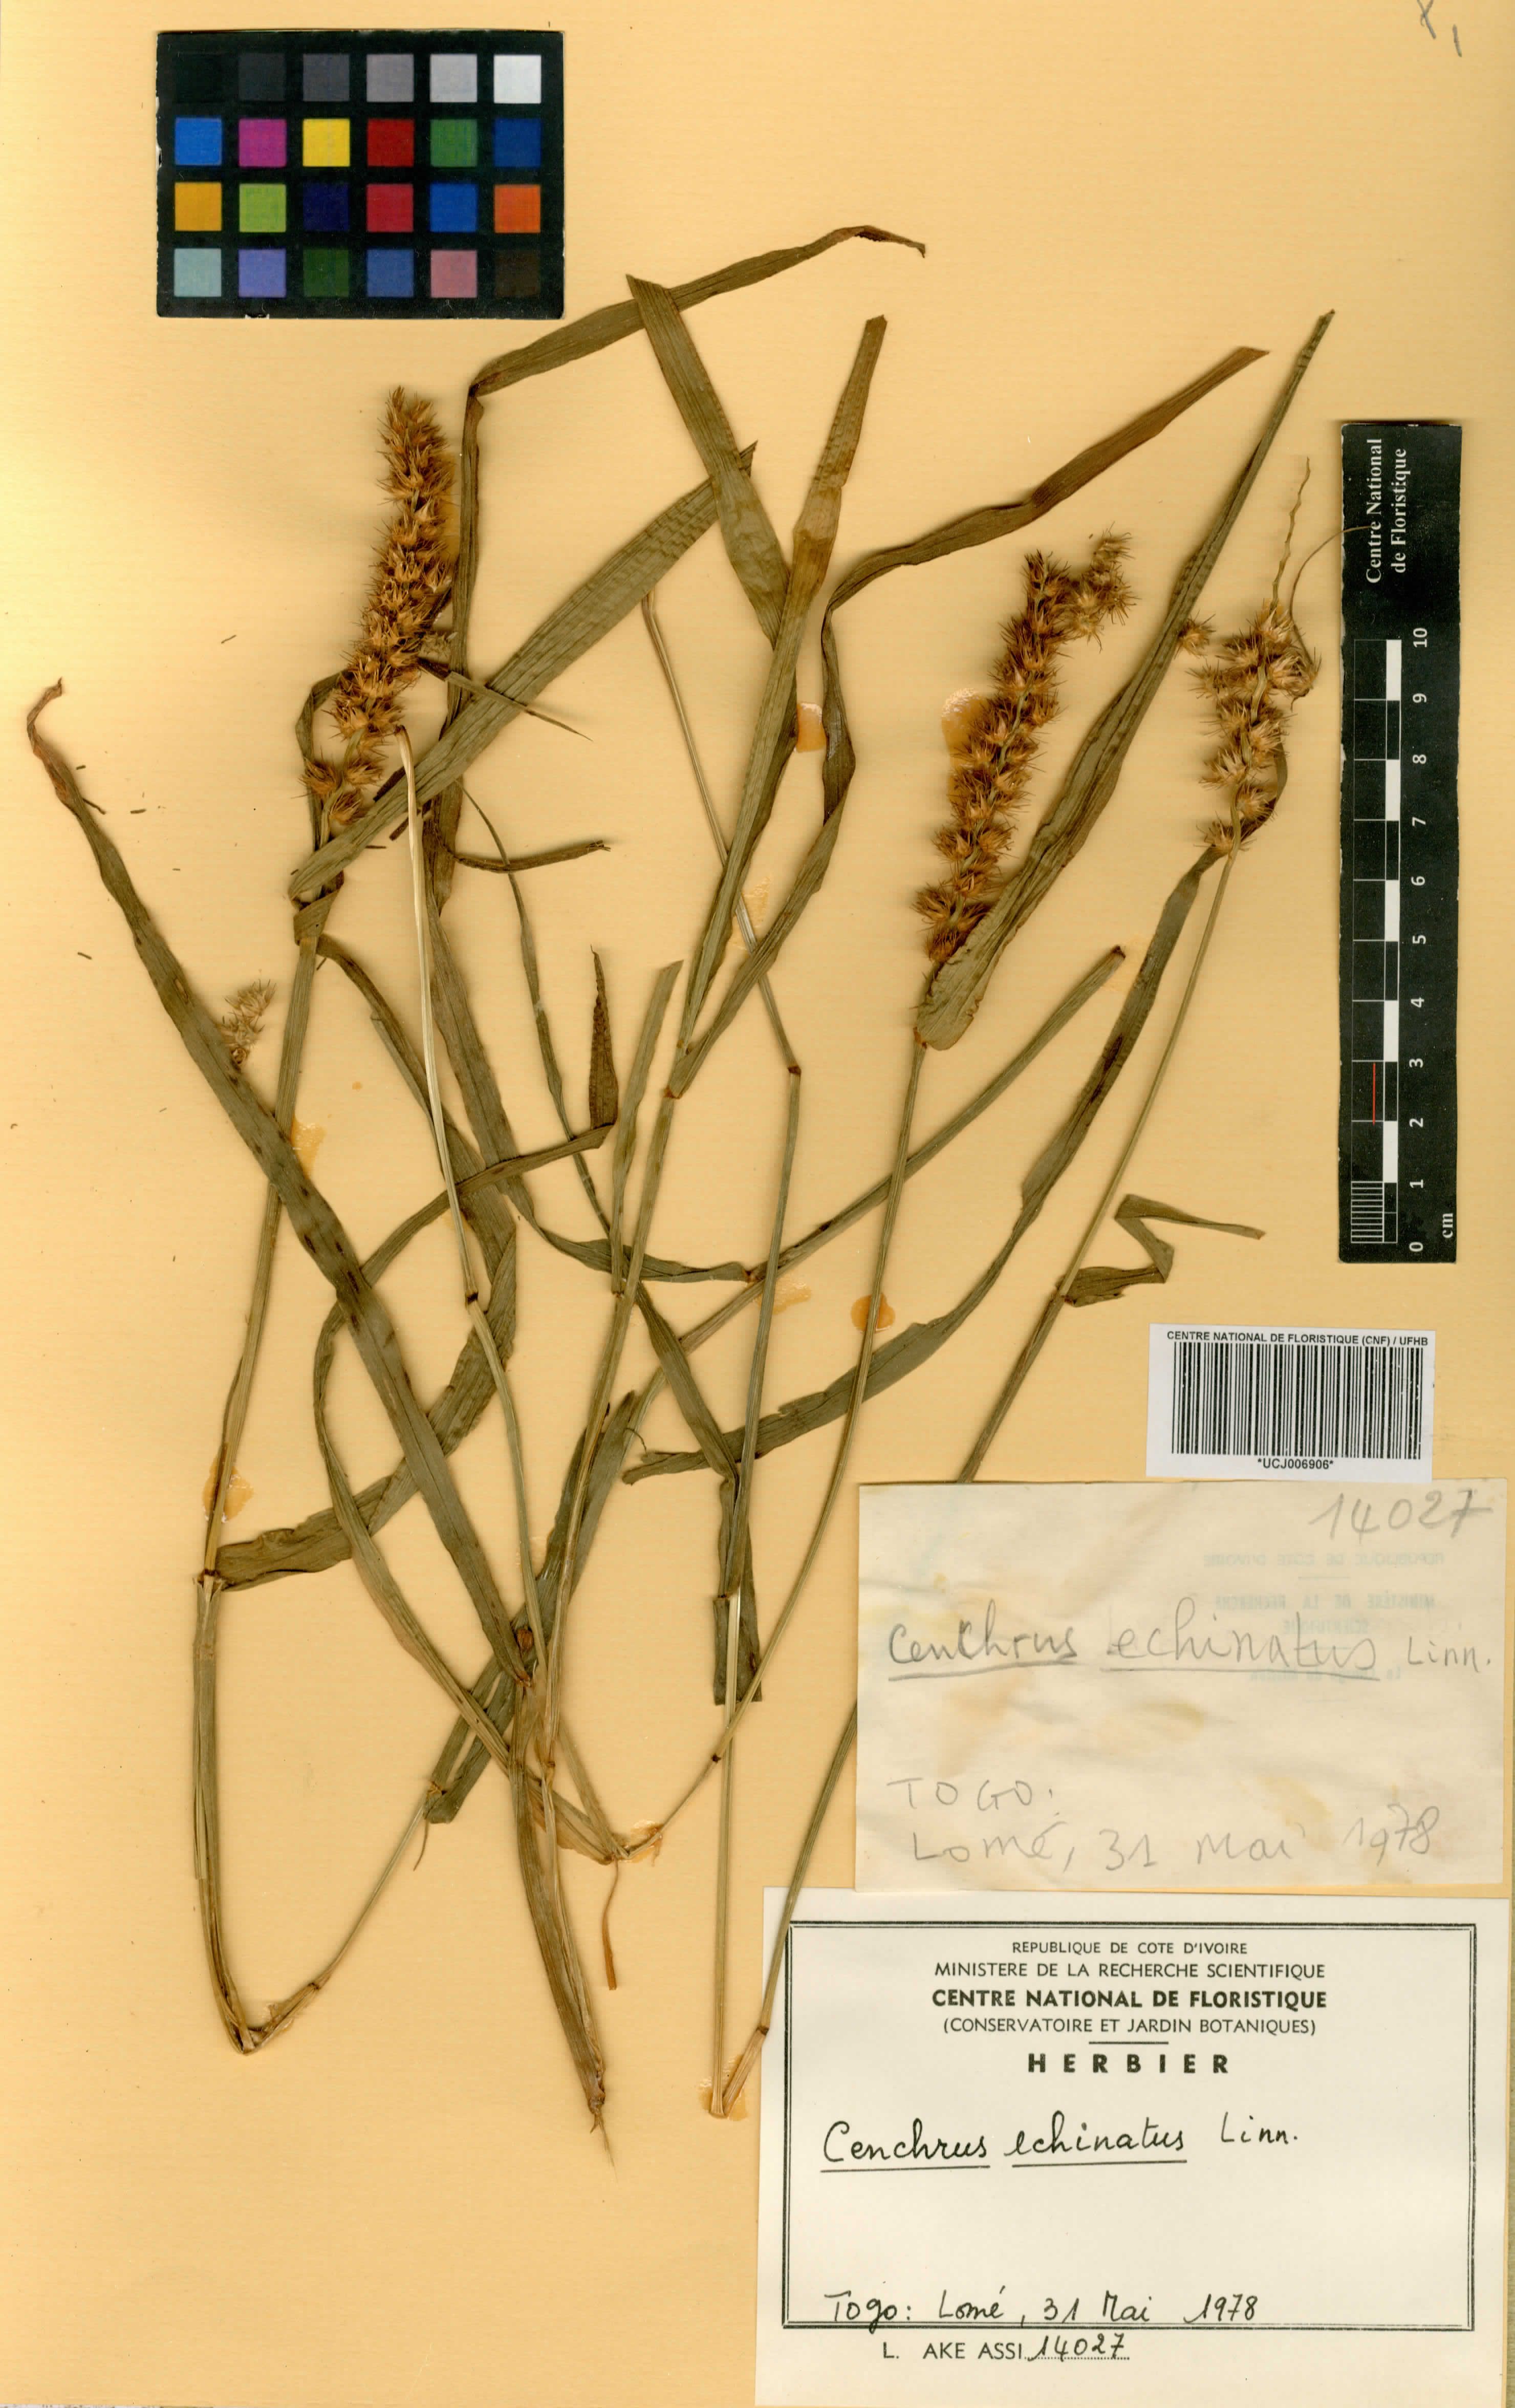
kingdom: Plantae
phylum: Tracheophyta
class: Liliopsida
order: Poales
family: Poaceae
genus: Cenchrus
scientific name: Cenchrus echinatus
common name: Southern sandbur
